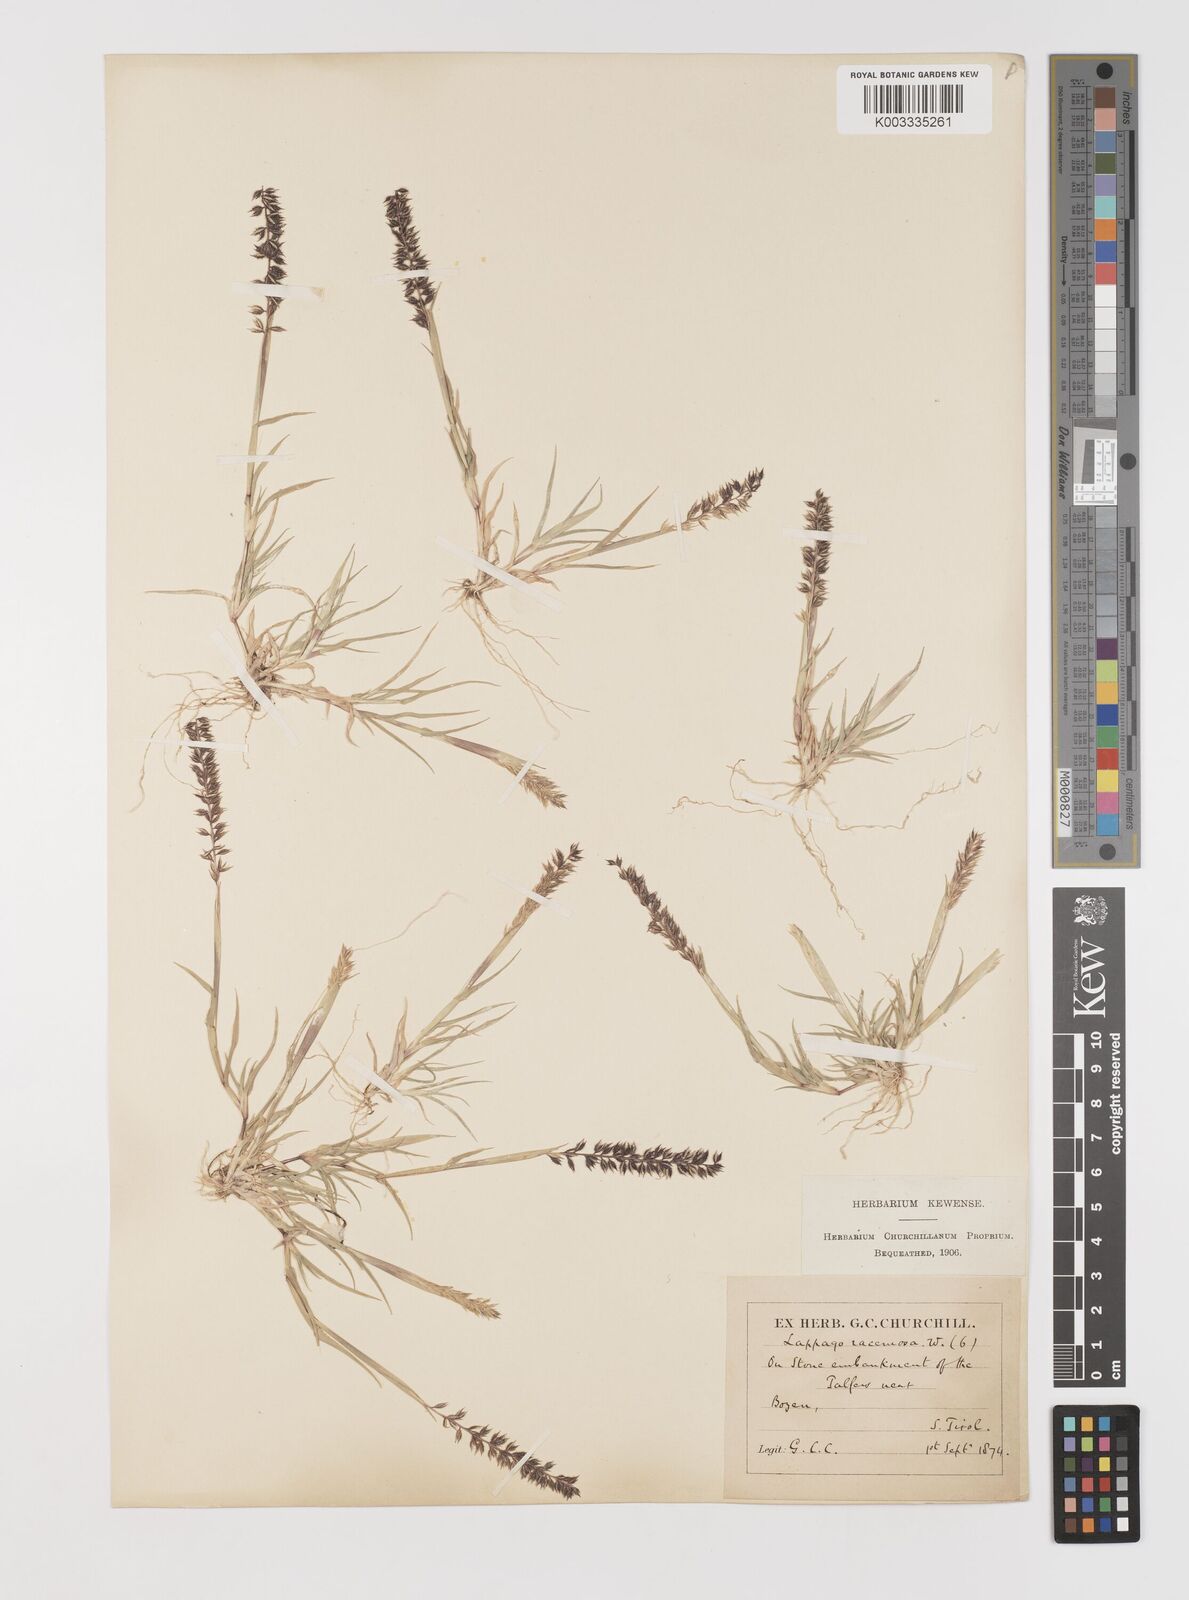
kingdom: Plantae
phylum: Tracheophyta
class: Liliopsida
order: Poales
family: Poaceae
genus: Tragus
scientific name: Tragus racemosus
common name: European bur-grass
